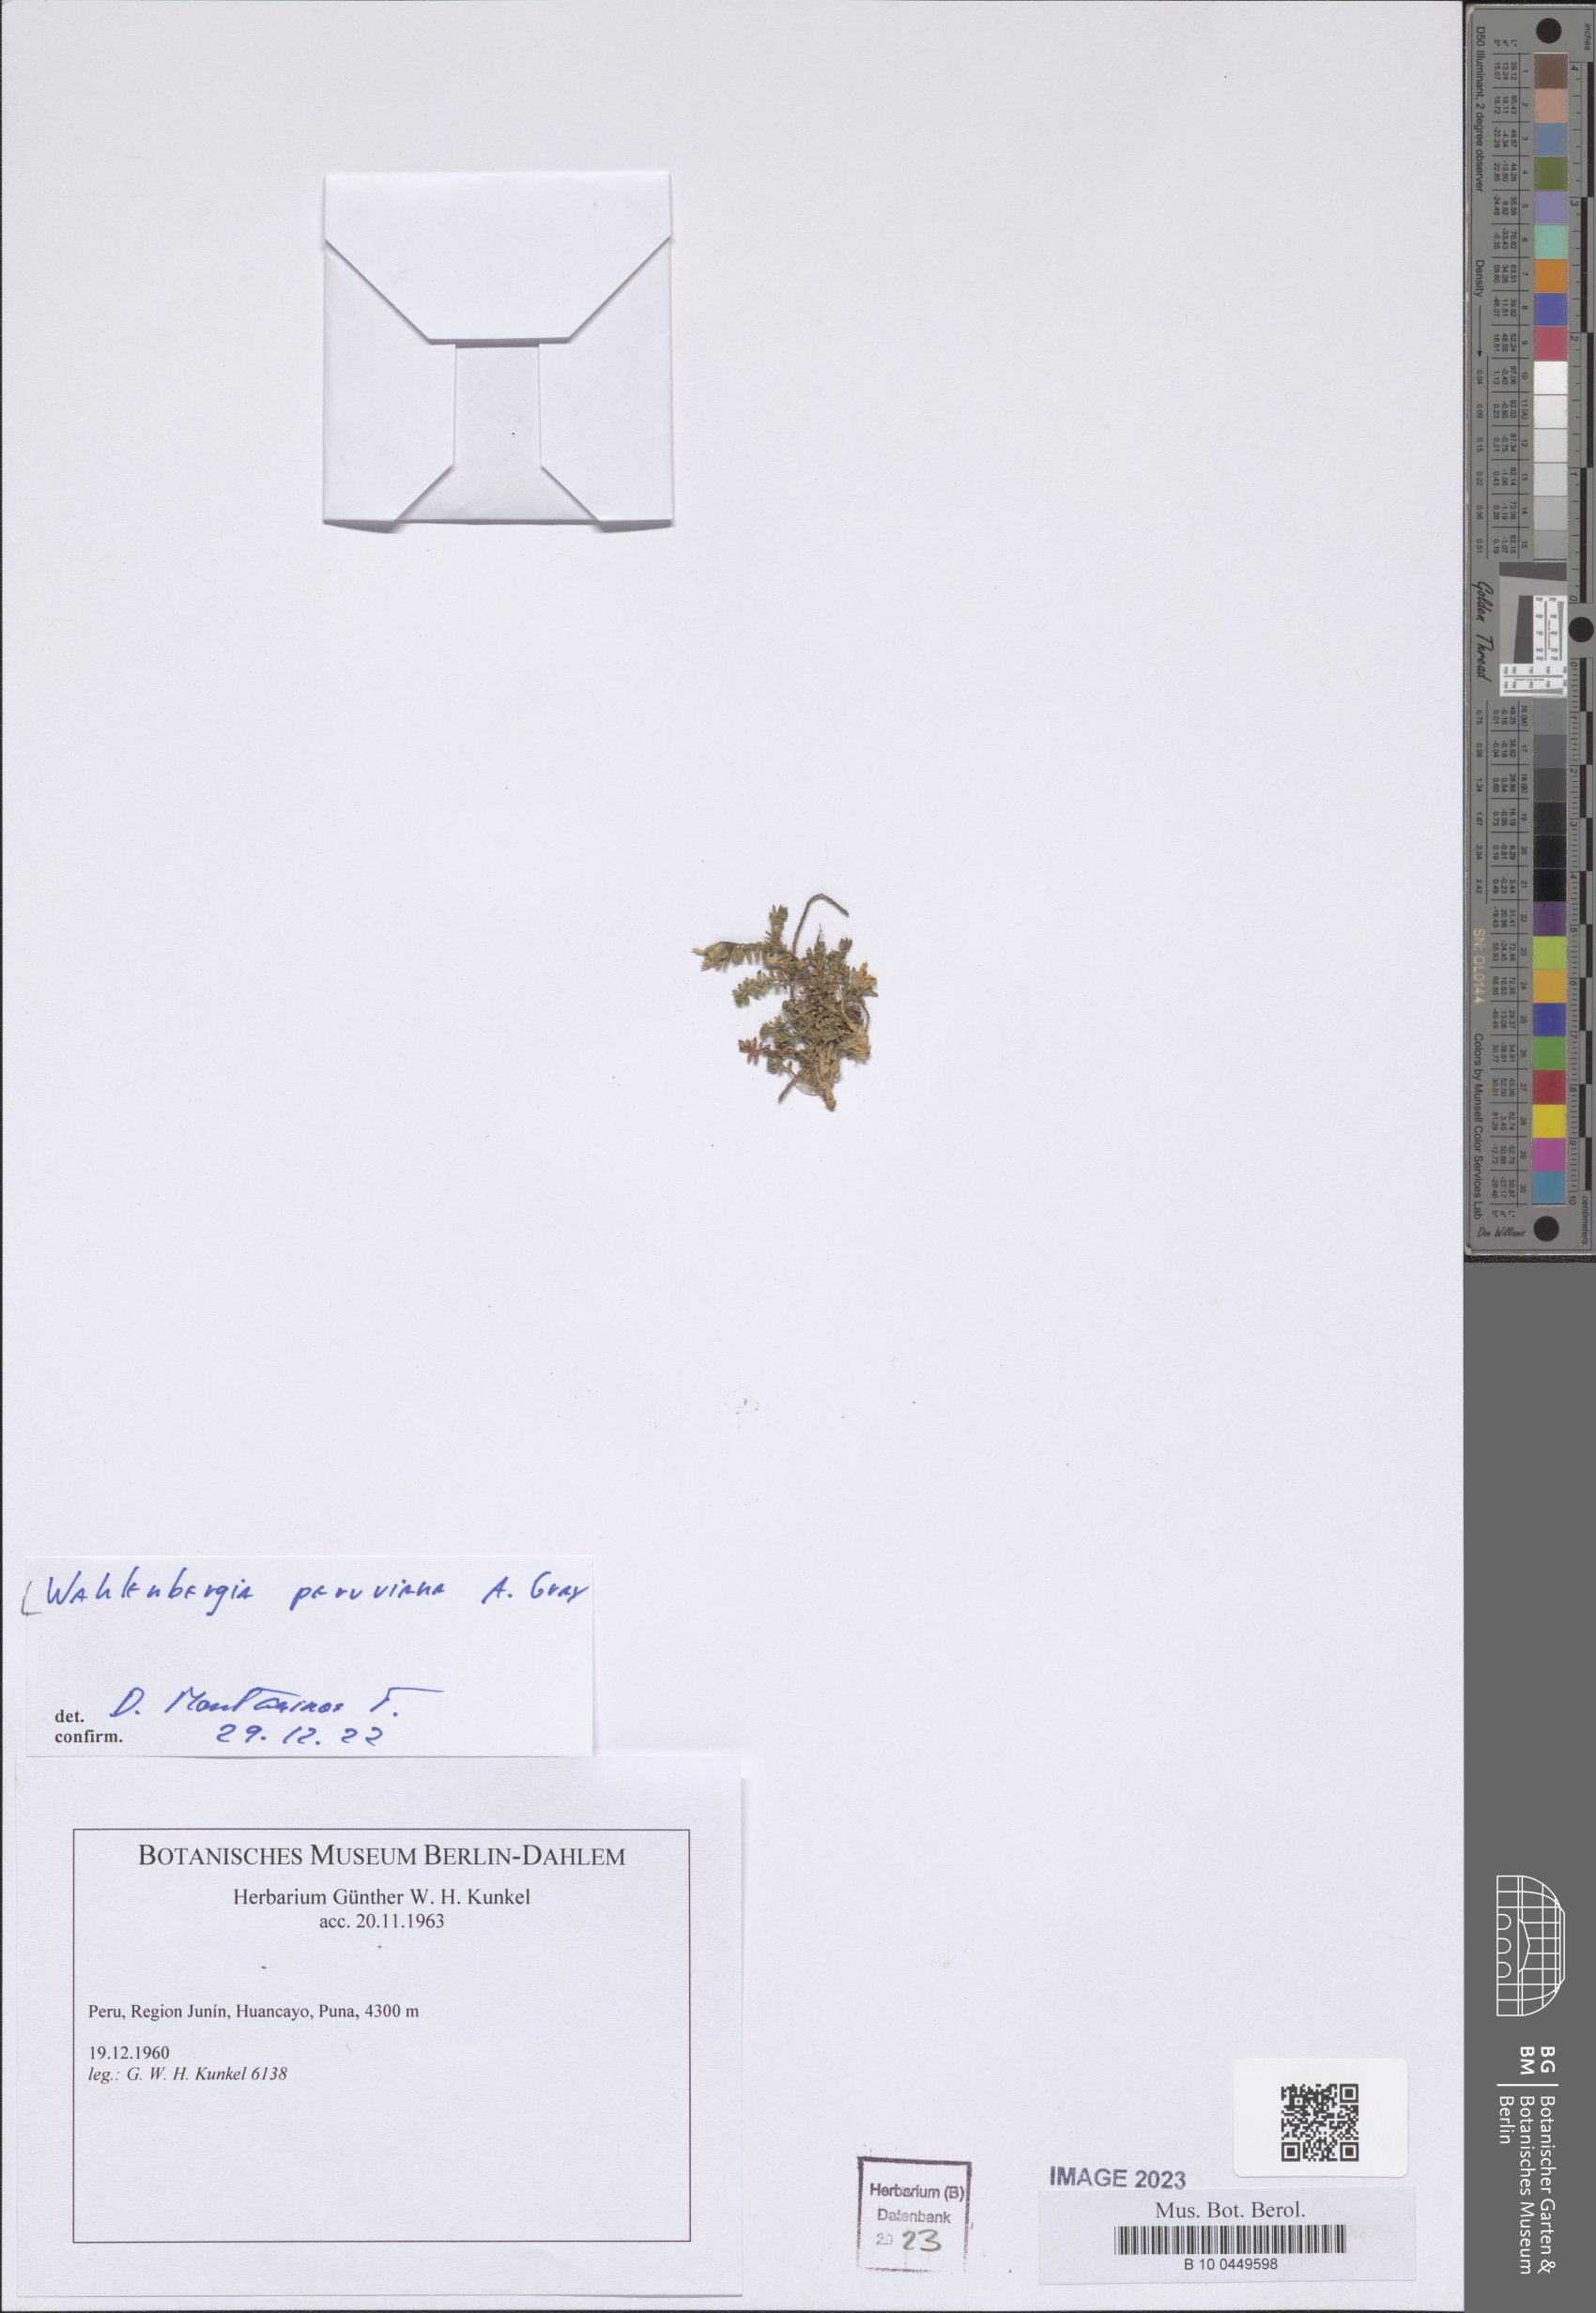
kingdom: Plantae
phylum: Tracheophyta
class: Magnoliopsida
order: Asterales
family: Campanulaceae
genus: Wahlenbergia
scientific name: Wahlenbergia peruviana
